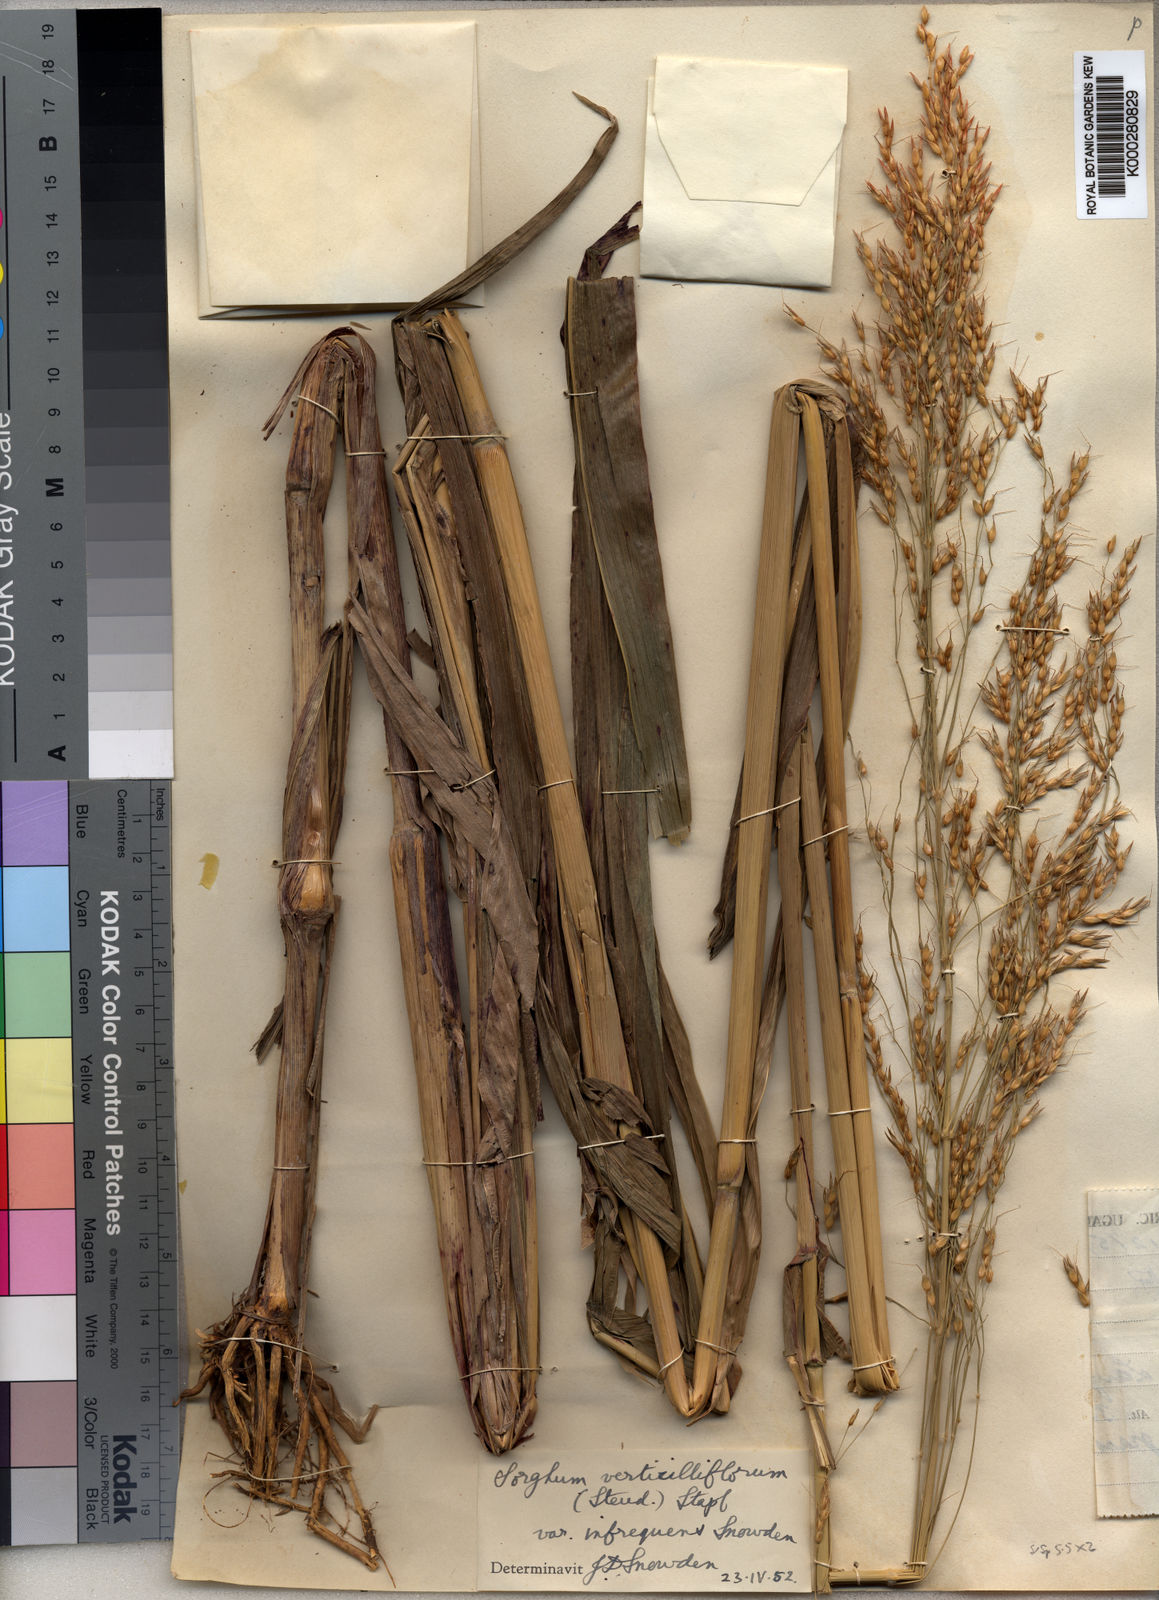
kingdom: Plantae
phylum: Tracheophyta
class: Liliopsida
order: Poales
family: Poaceae
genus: Sorghum
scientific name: Sorghum arundinaceum
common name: Sorghum
